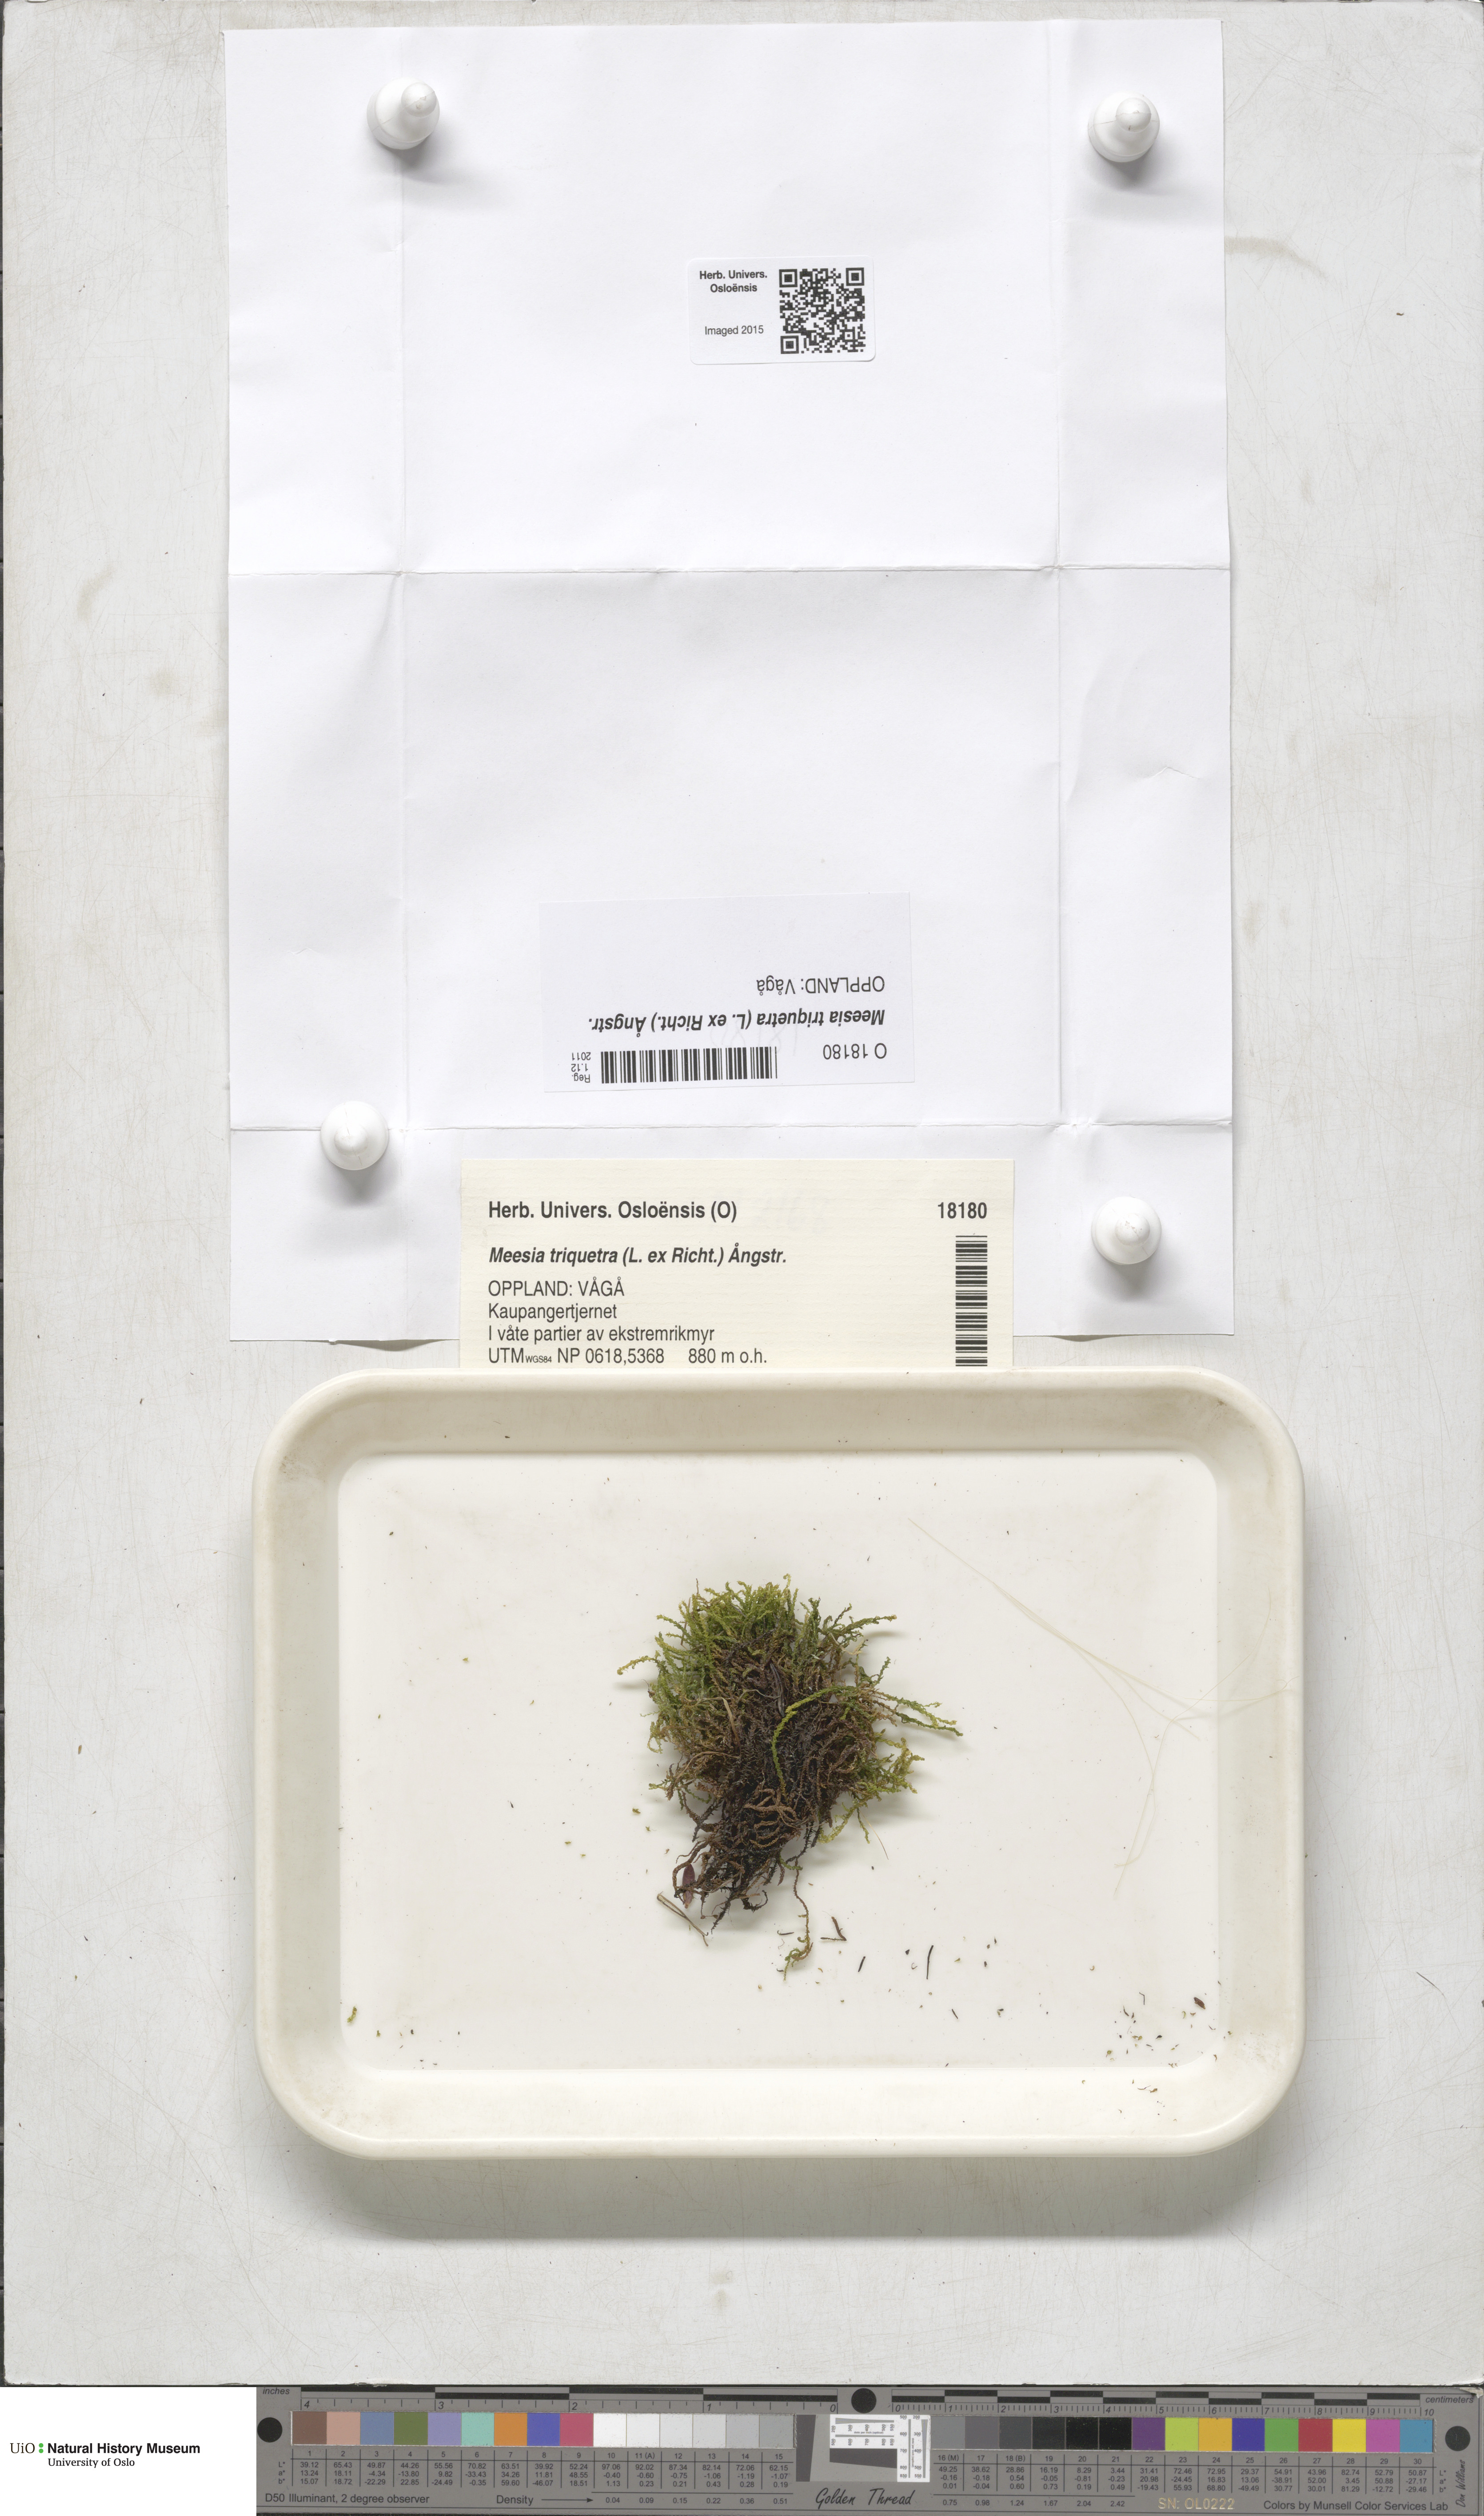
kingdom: Plantae
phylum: Bryophyta
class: Bryopsida
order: Splachnales
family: Meesiaceae
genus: Meesia
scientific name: Meesia triquetra
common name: Three-angled thread moss
